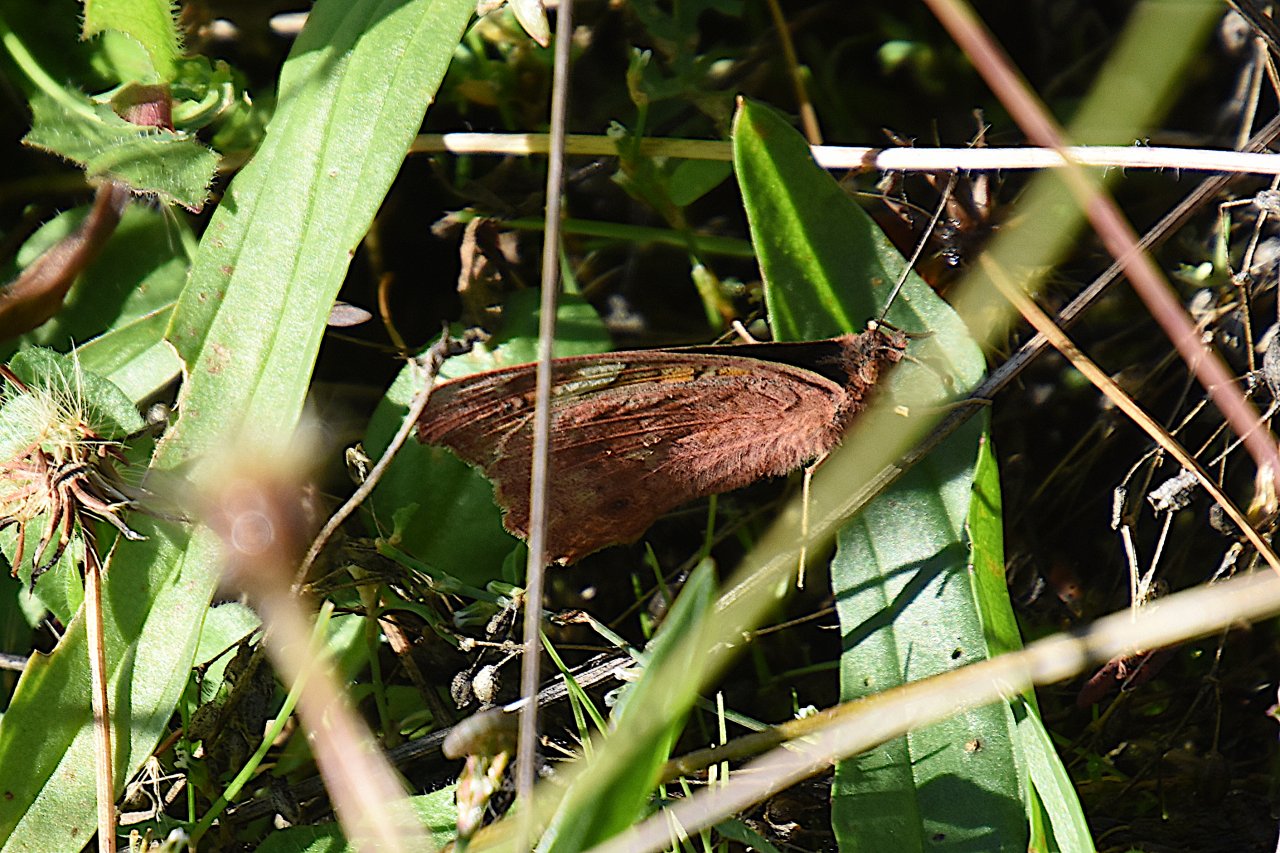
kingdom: Animalia
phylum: Arthropoda
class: Insecta
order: Lepidoptera
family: Nymphalidae
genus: Junonia
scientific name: Junonia coenia
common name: Common Buckeye
